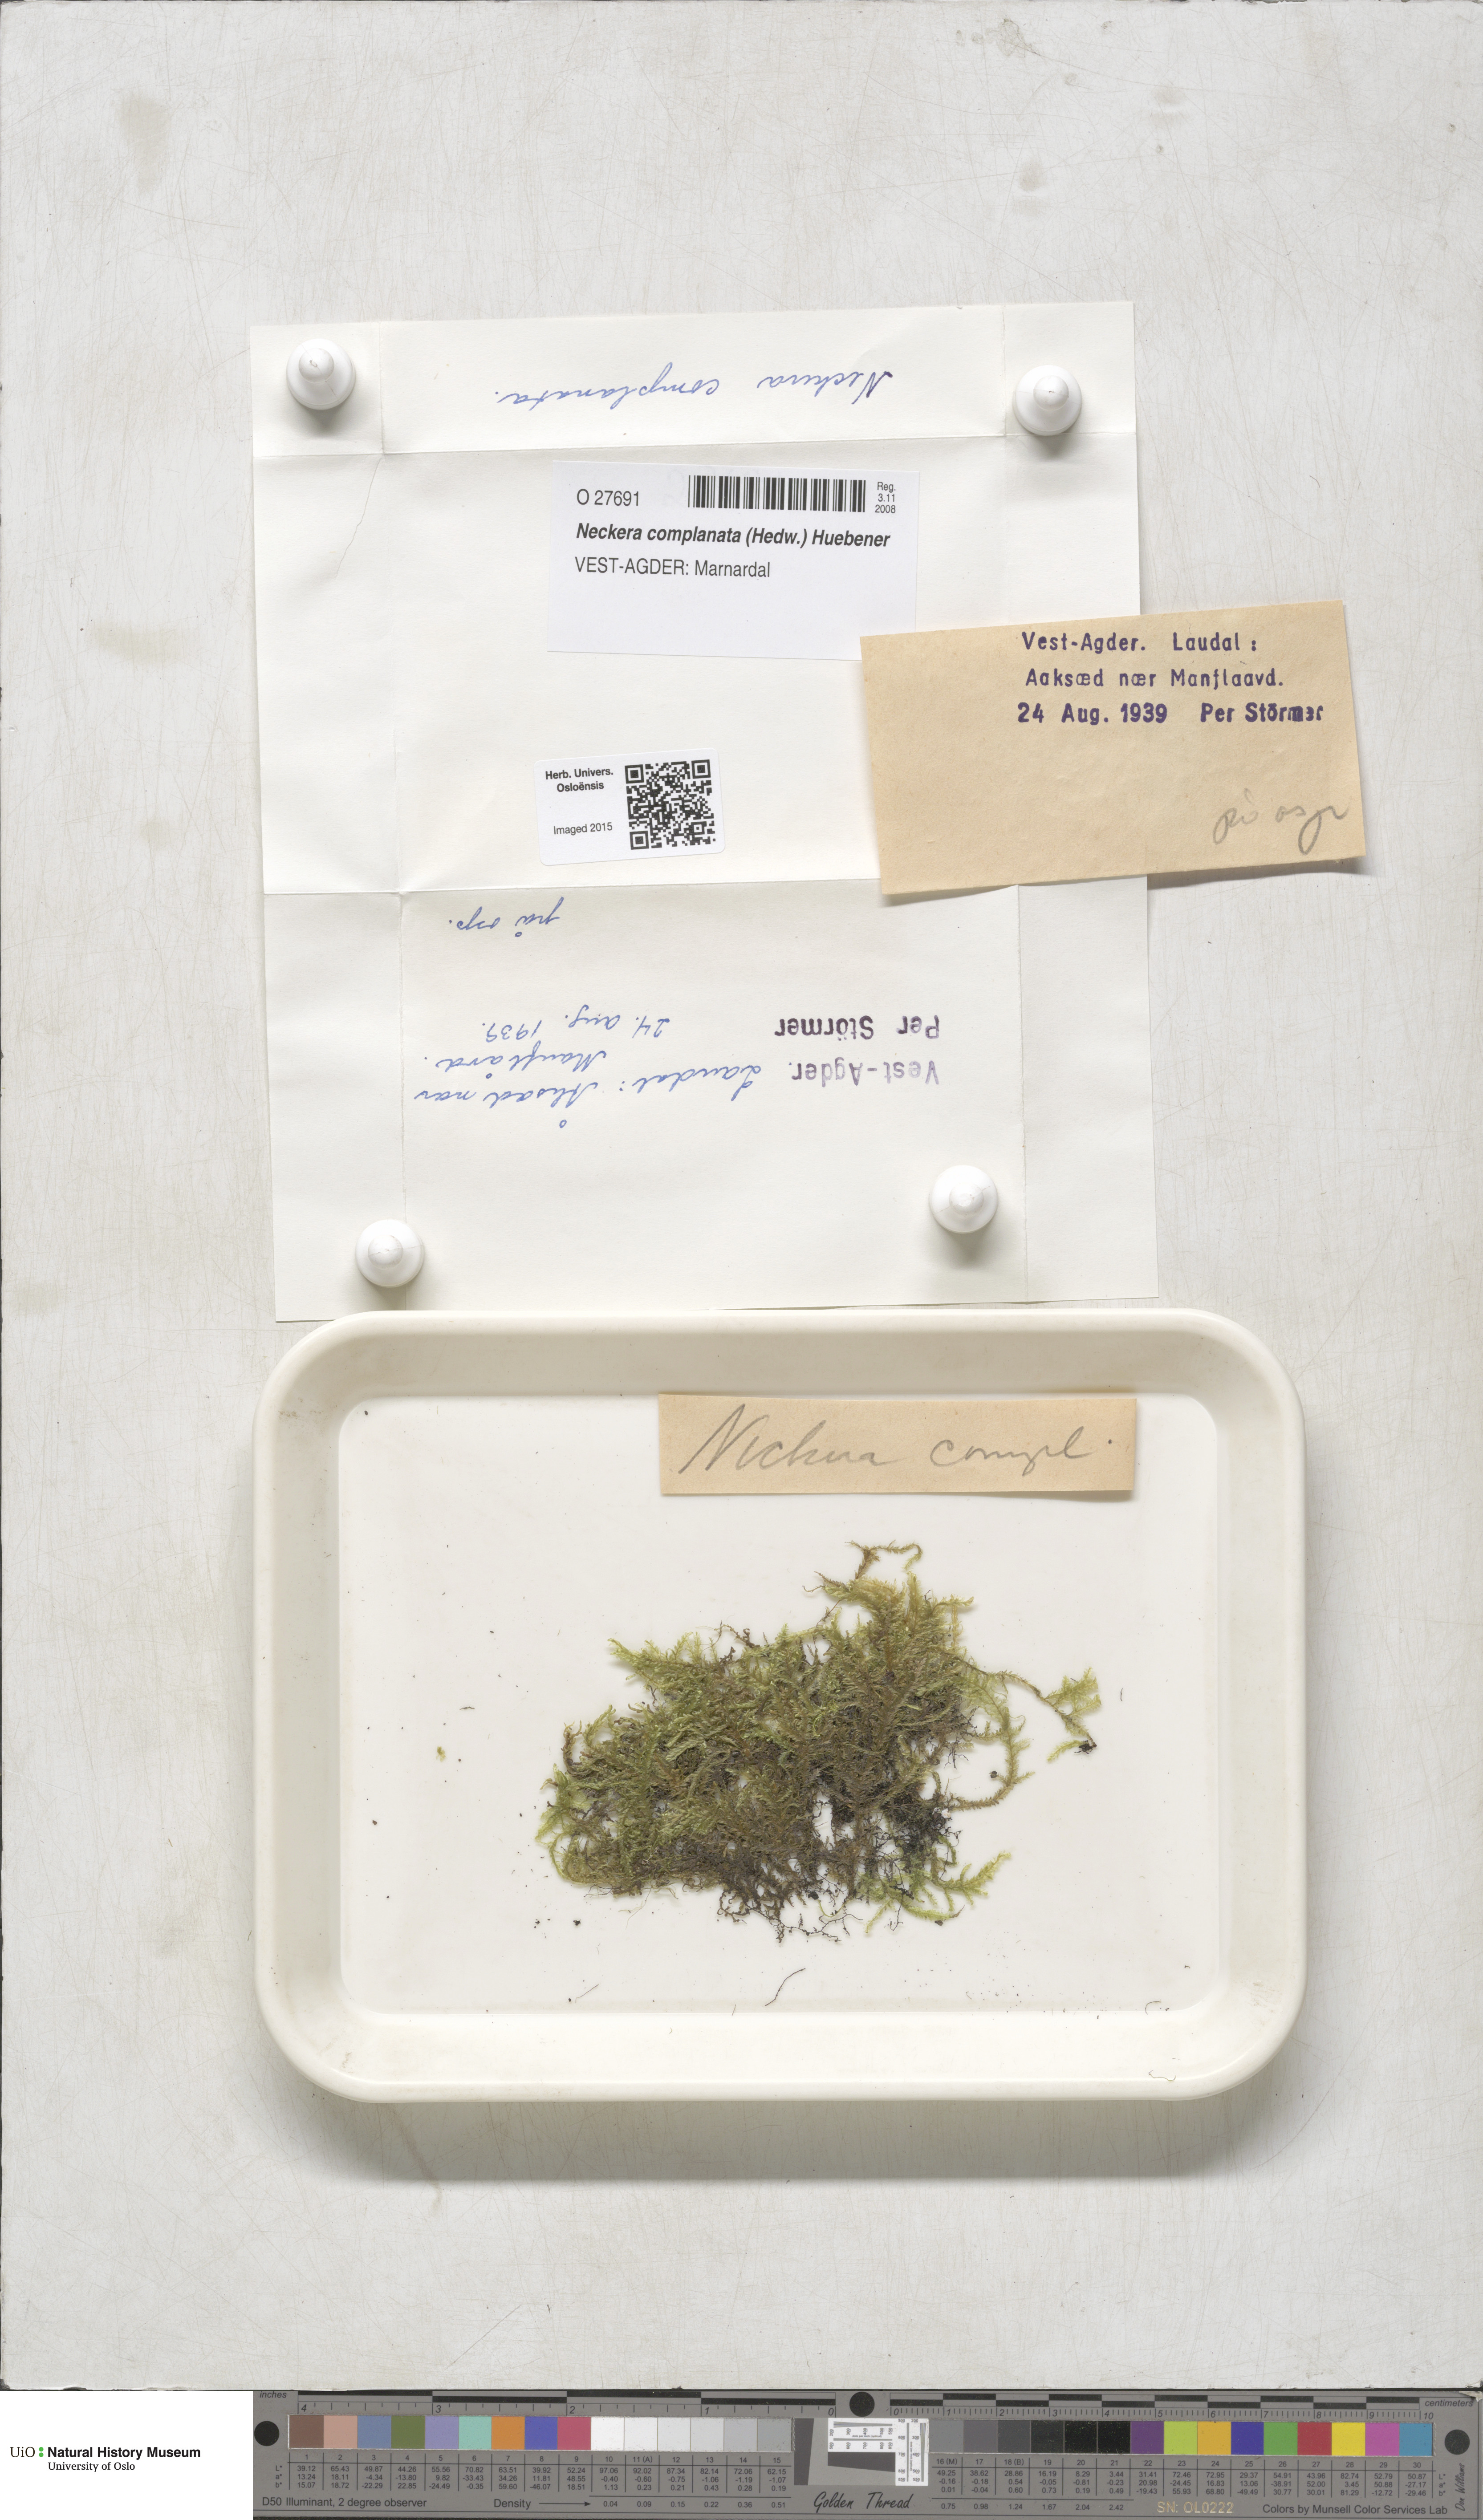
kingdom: Plantae
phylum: Bryophyta
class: Bryopsida
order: Hypnales
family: Neckeraceae
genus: Alleniella
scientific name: Alleniella complanata
